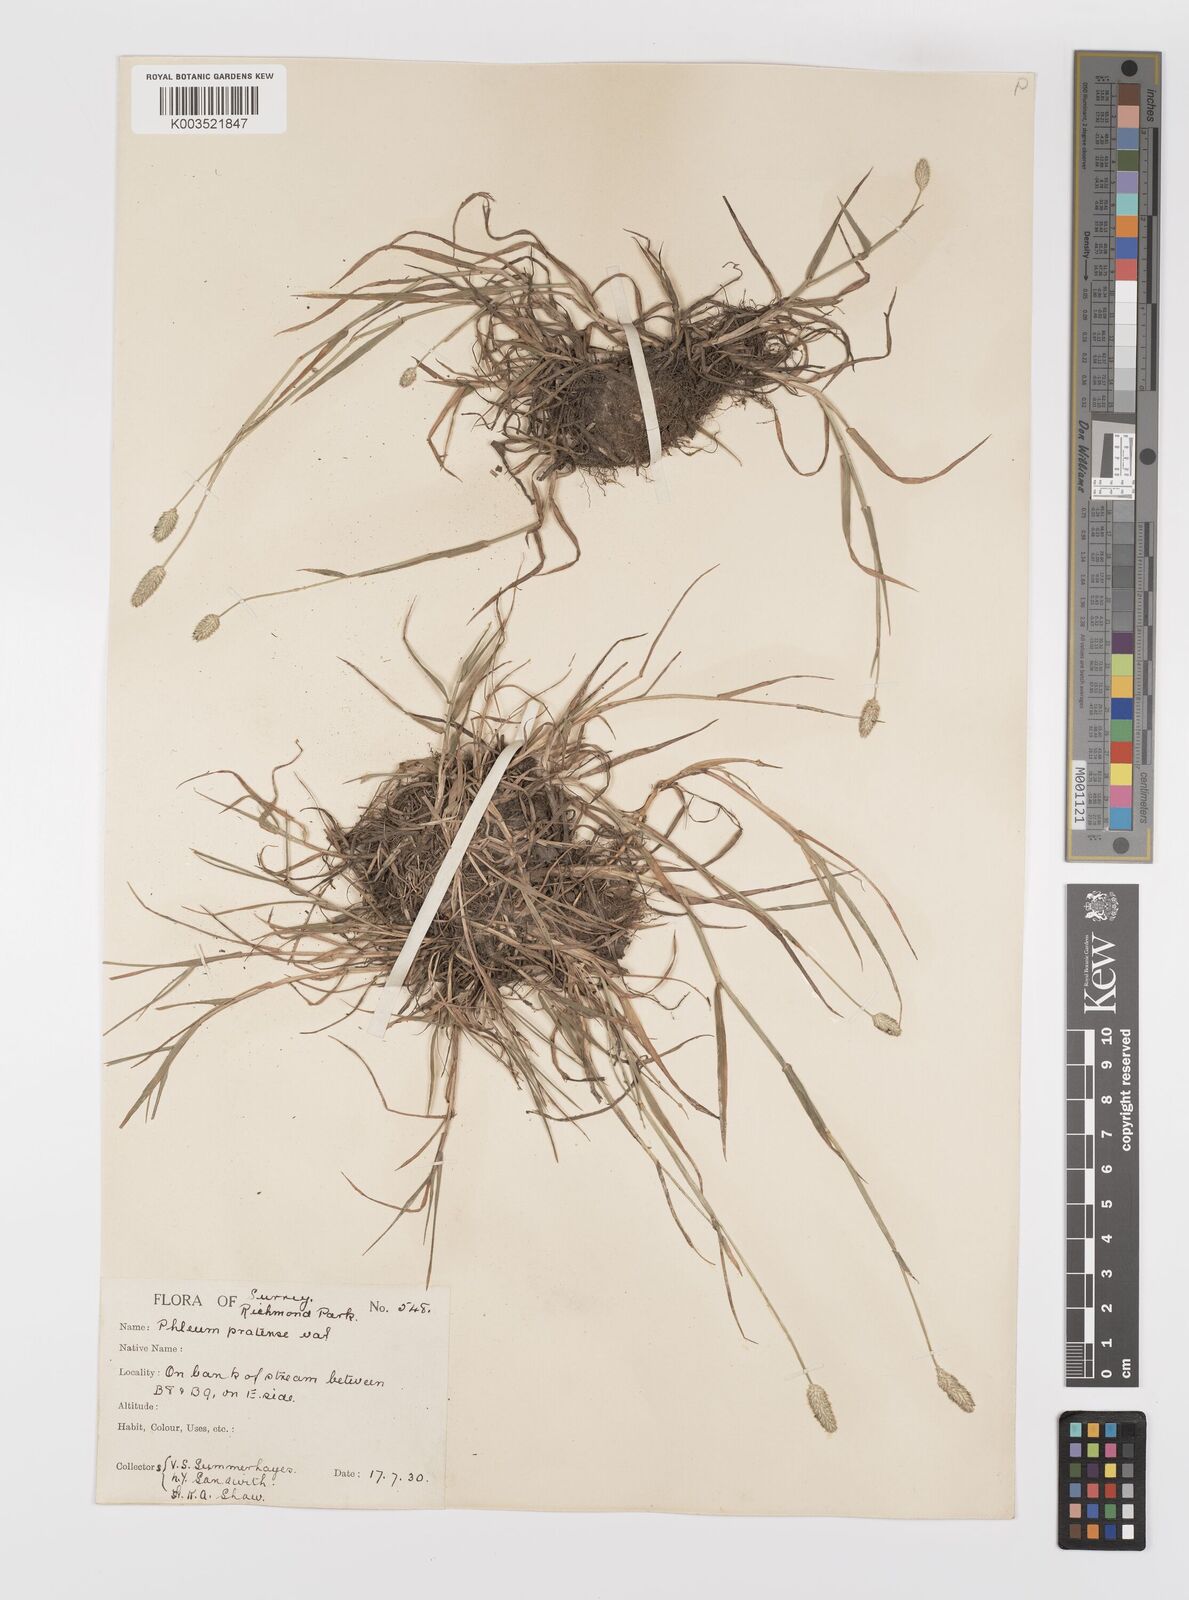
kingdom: Plantae
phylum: Tracheophyta
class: Liliopsida
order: Poales
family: Poaceae
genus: Phleum
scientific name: Phleum bertolonii
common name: Smaller cat's-tail
